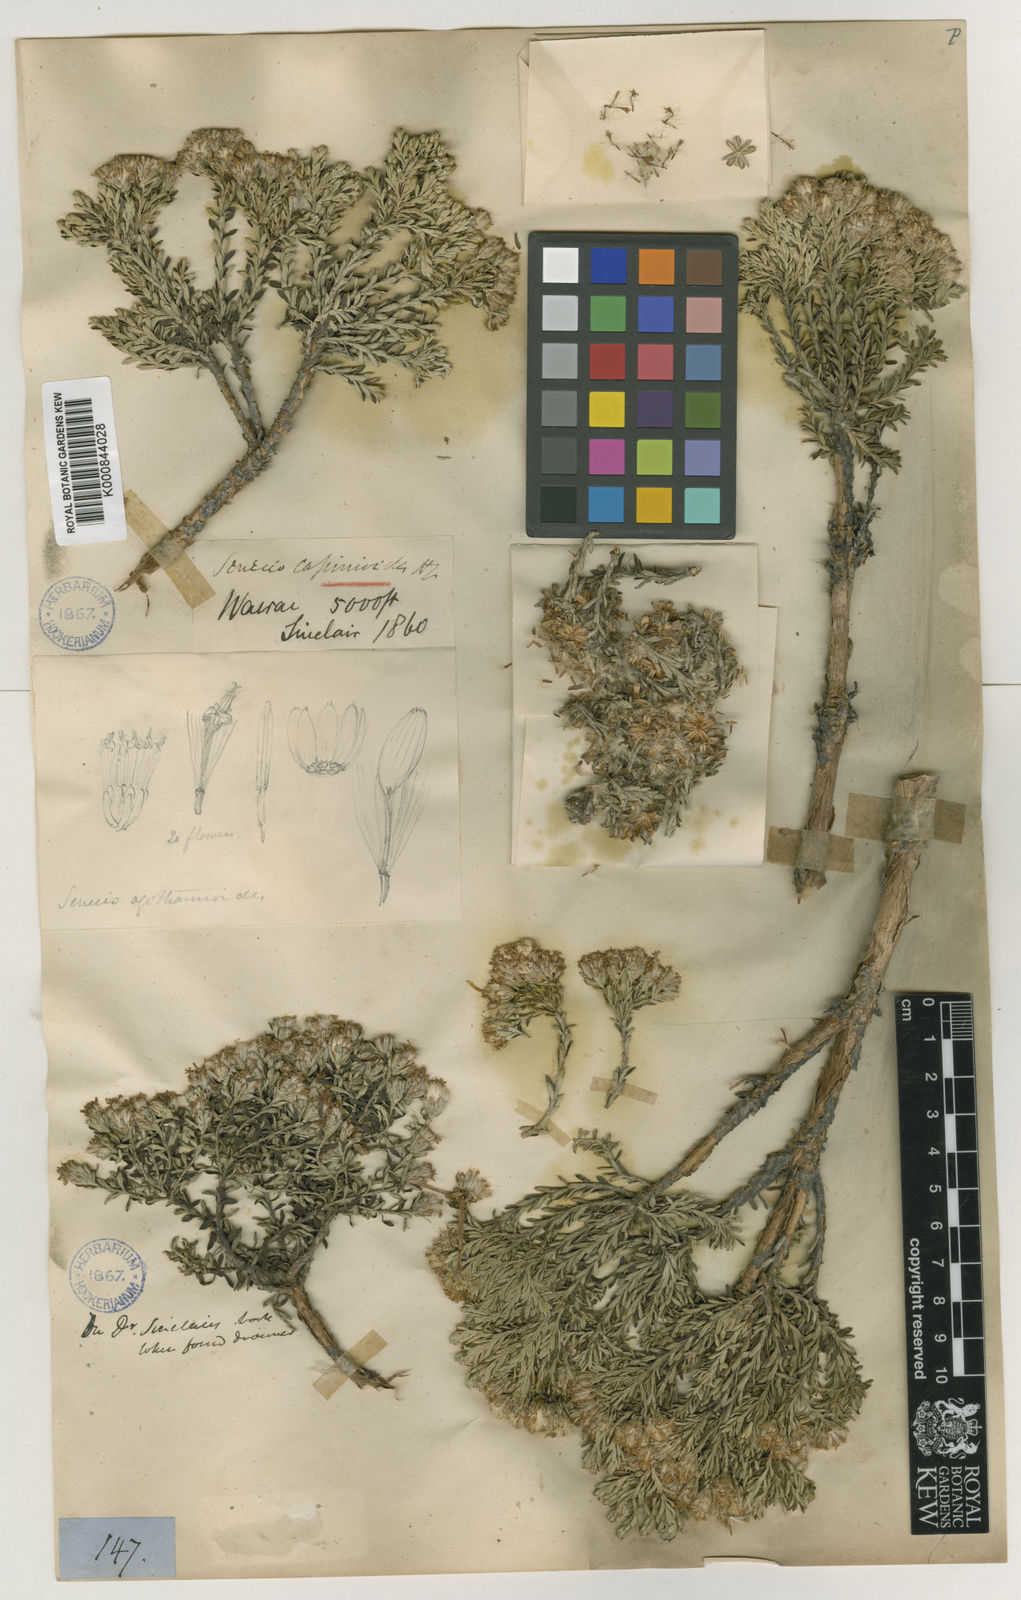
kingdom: Plantae
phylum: Tracheophyta
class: Magnoliopsida
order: Asterales
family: Asteraceae
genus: Brachyglottis
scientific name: Brachyglottis cassinioides
